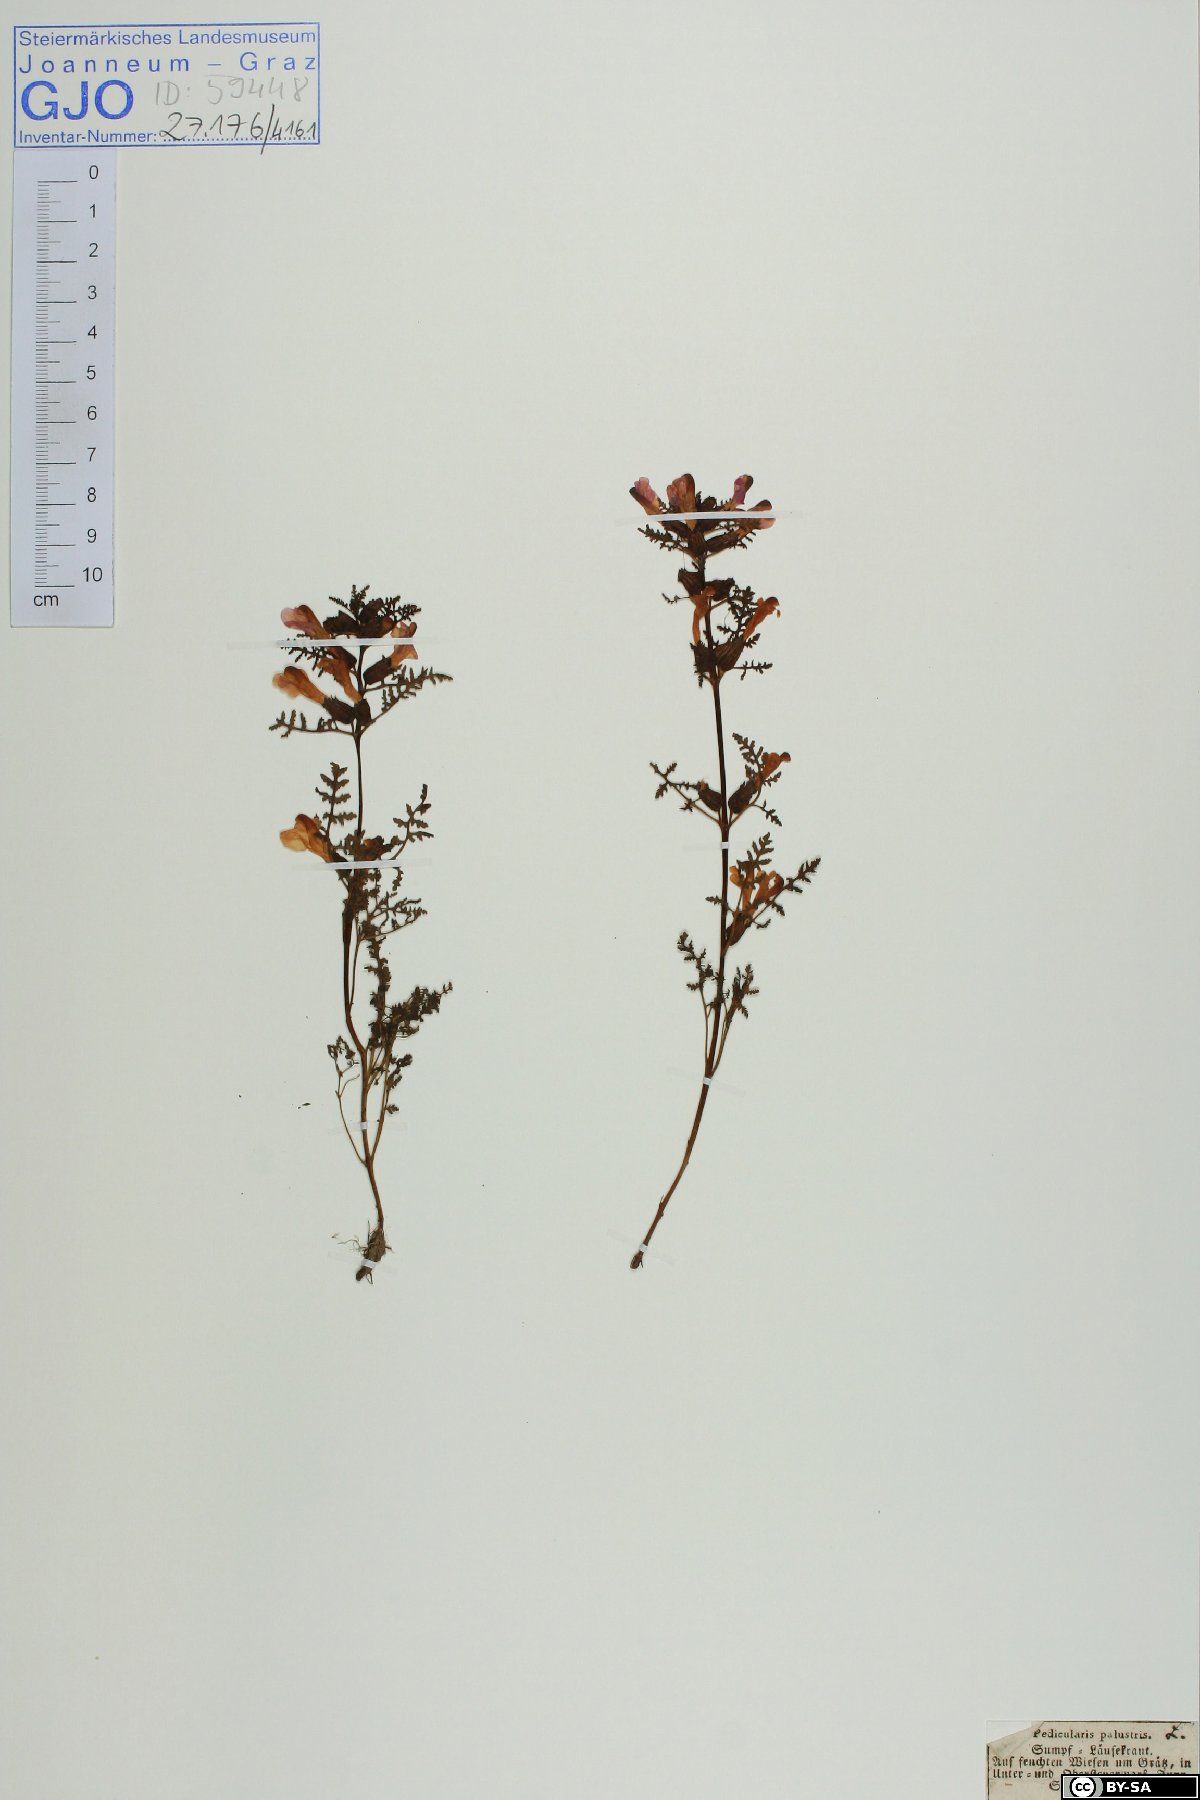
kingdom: Plantae
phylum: Tracheophyta
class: Magnoliopsida
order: Lamiales
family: Orobanchaceae
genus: Pedicularis
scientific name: Pedicularis palustris
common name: Marsh lousewort
